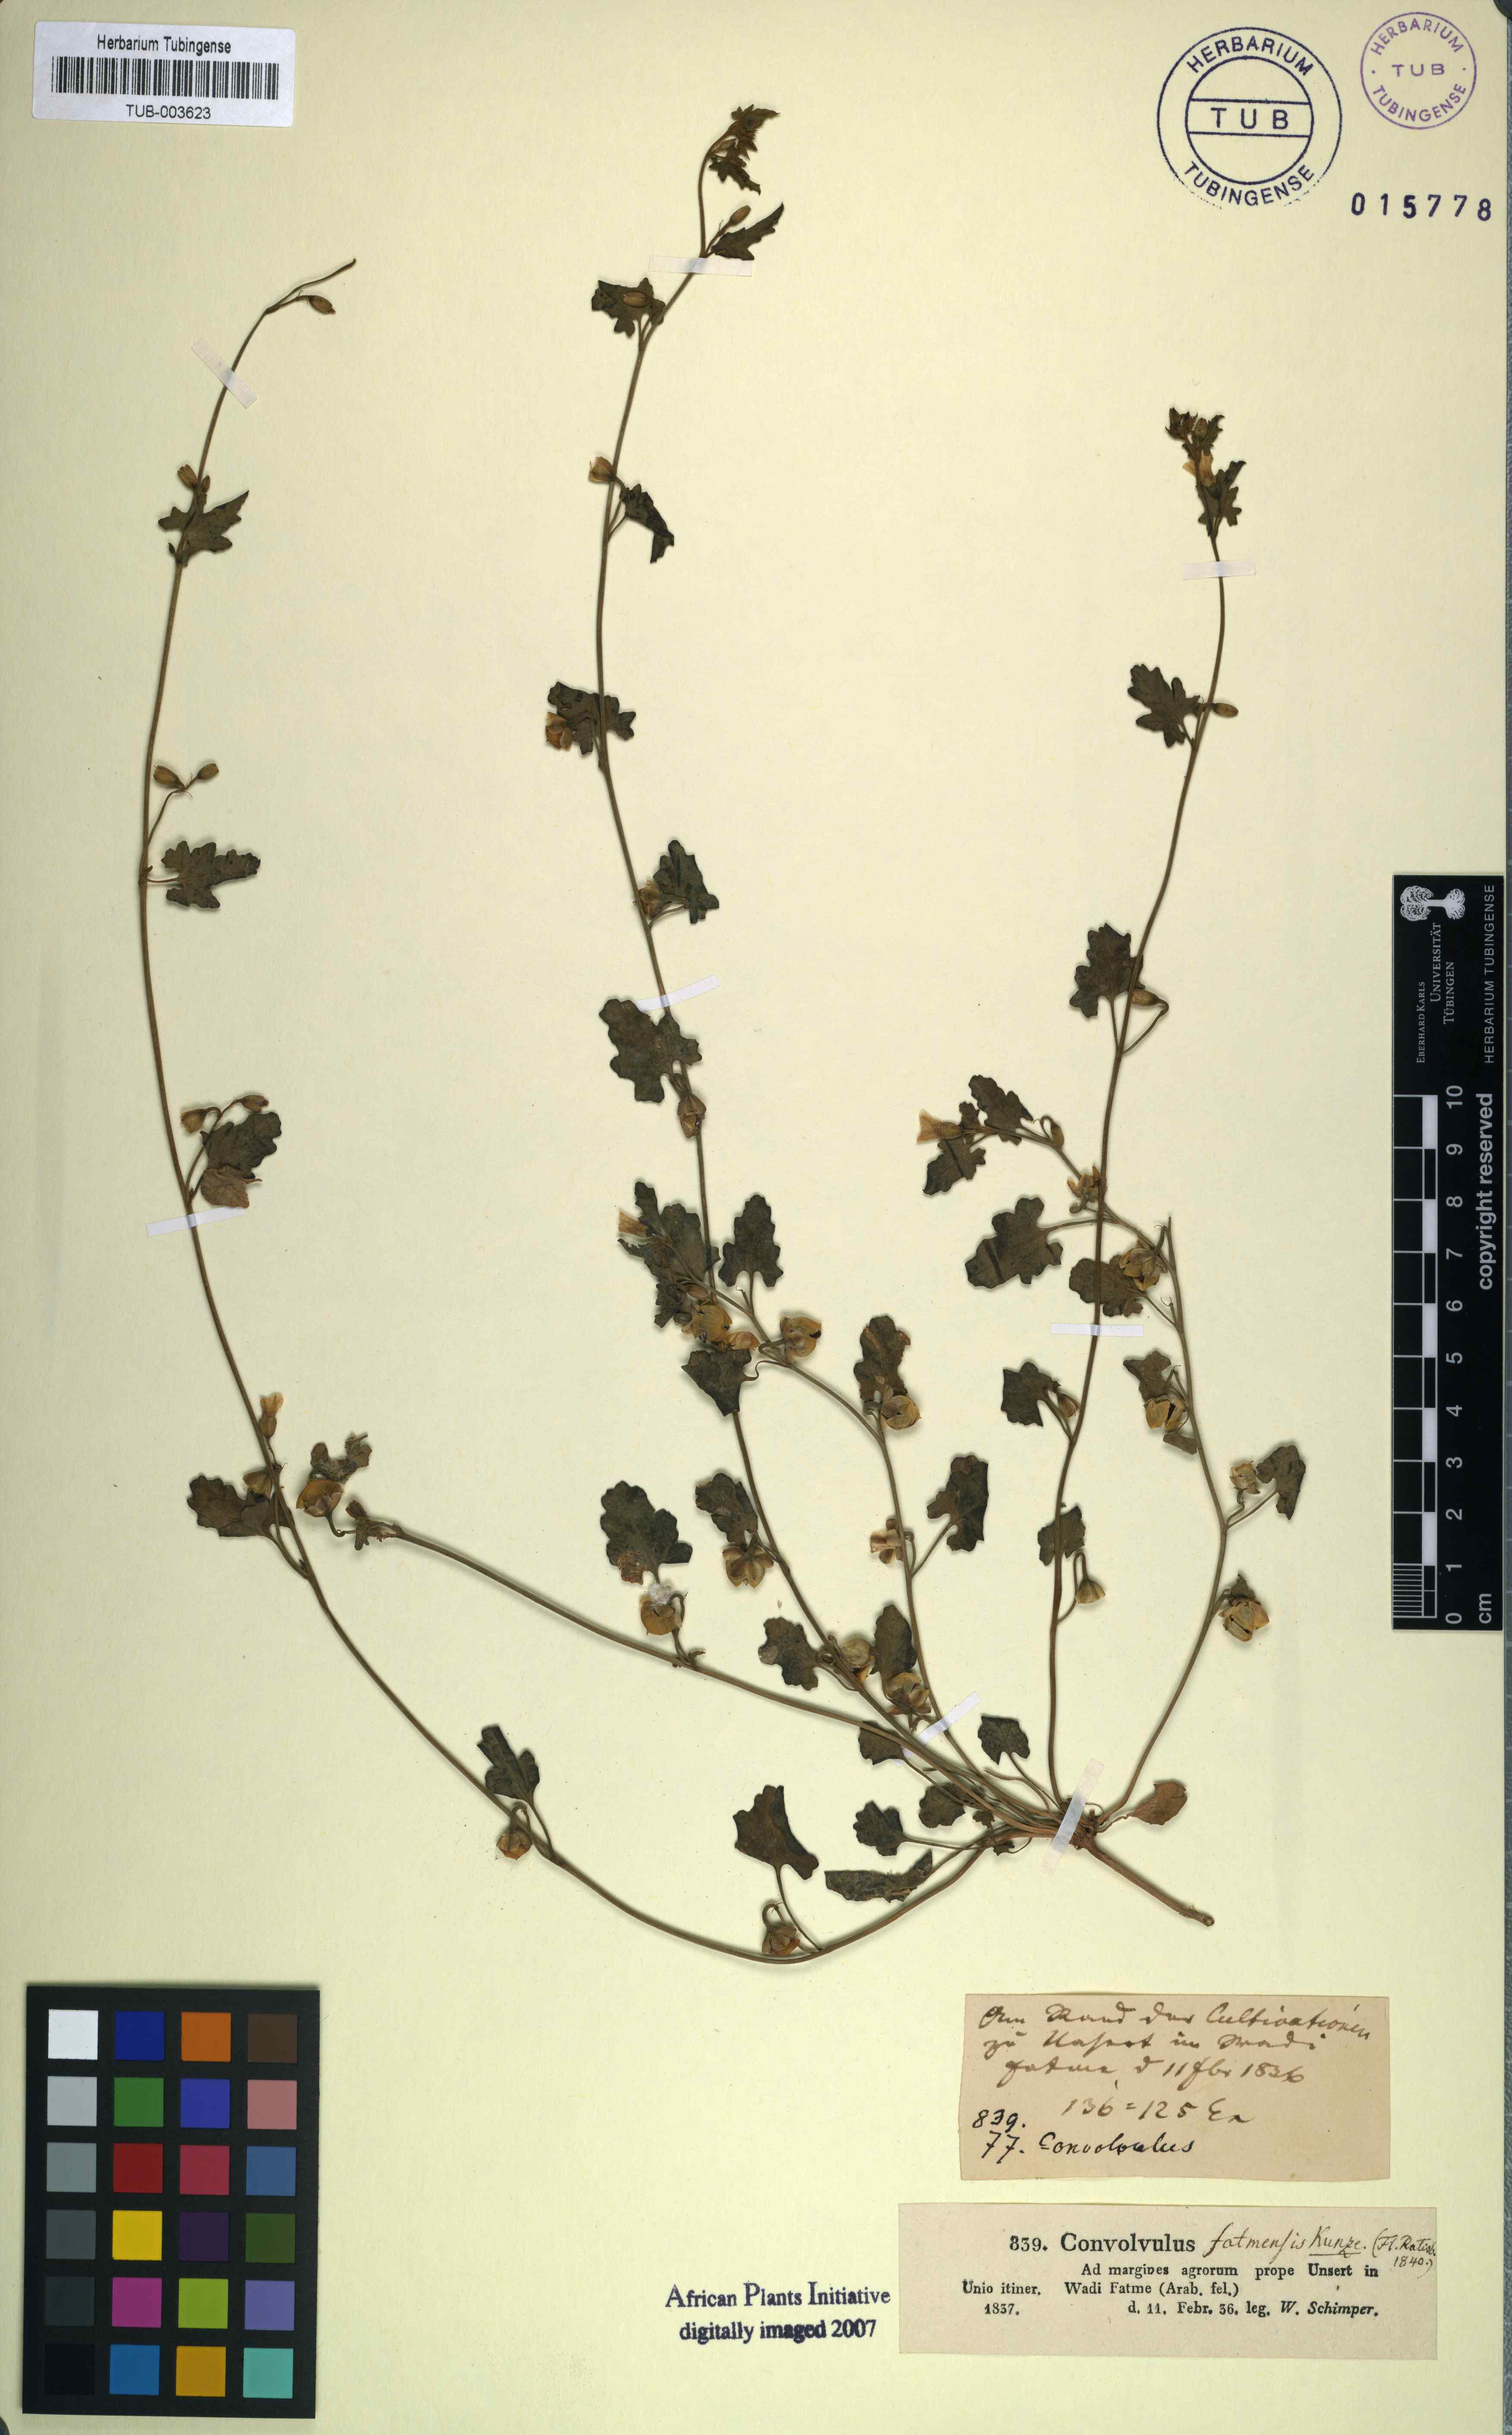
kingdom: Plantae
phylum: Tracheophyta
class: Magnoliopsida
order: Solanales
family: Convolvulaceae
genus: Convolvulus
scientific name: Convolvulus fatmensis
